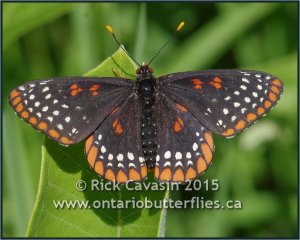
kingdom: Animalia
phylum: Arthropoda
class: Insecta
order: Lepidoptera
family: Nymphalidae
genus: Euphydryas
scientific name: Euphydryas phaeton
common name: Baltimore Checkerspot
